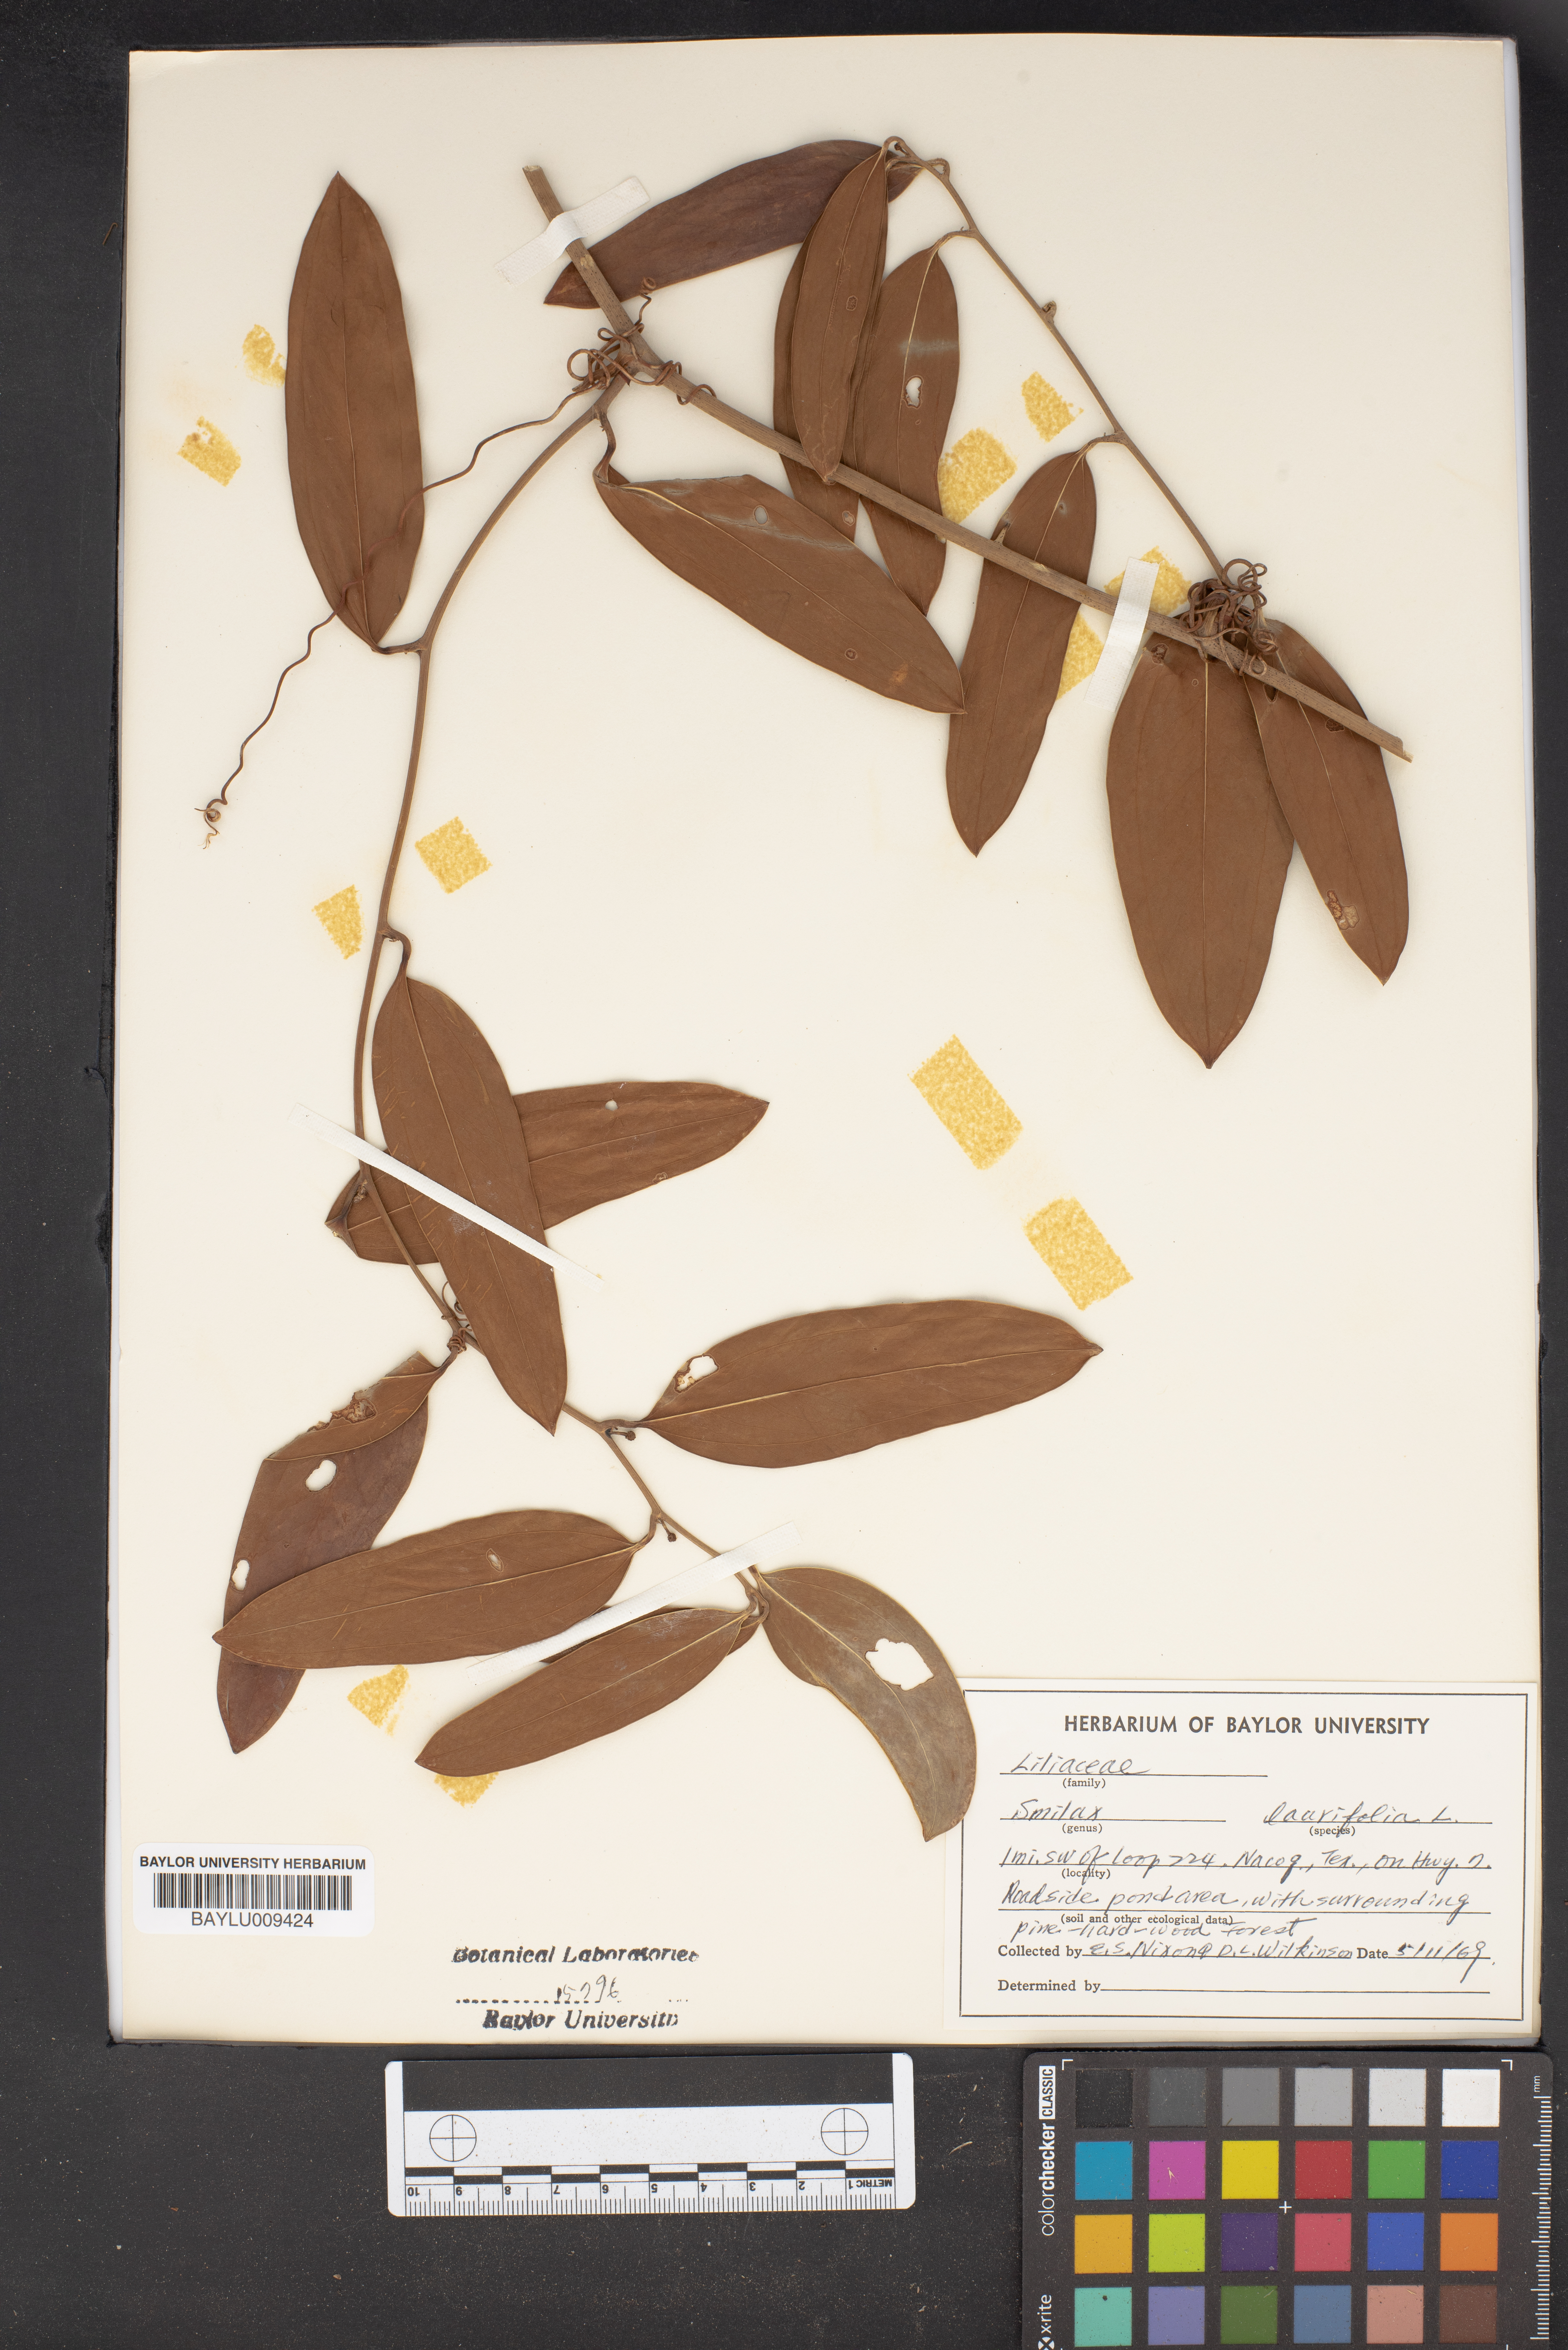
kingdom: Plantae
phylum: Tracheophyta
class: Liliopsida
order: Liliales
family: Smilacaceae
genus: Smilax
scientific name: Smilax laurifolia
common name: Bamboovine
